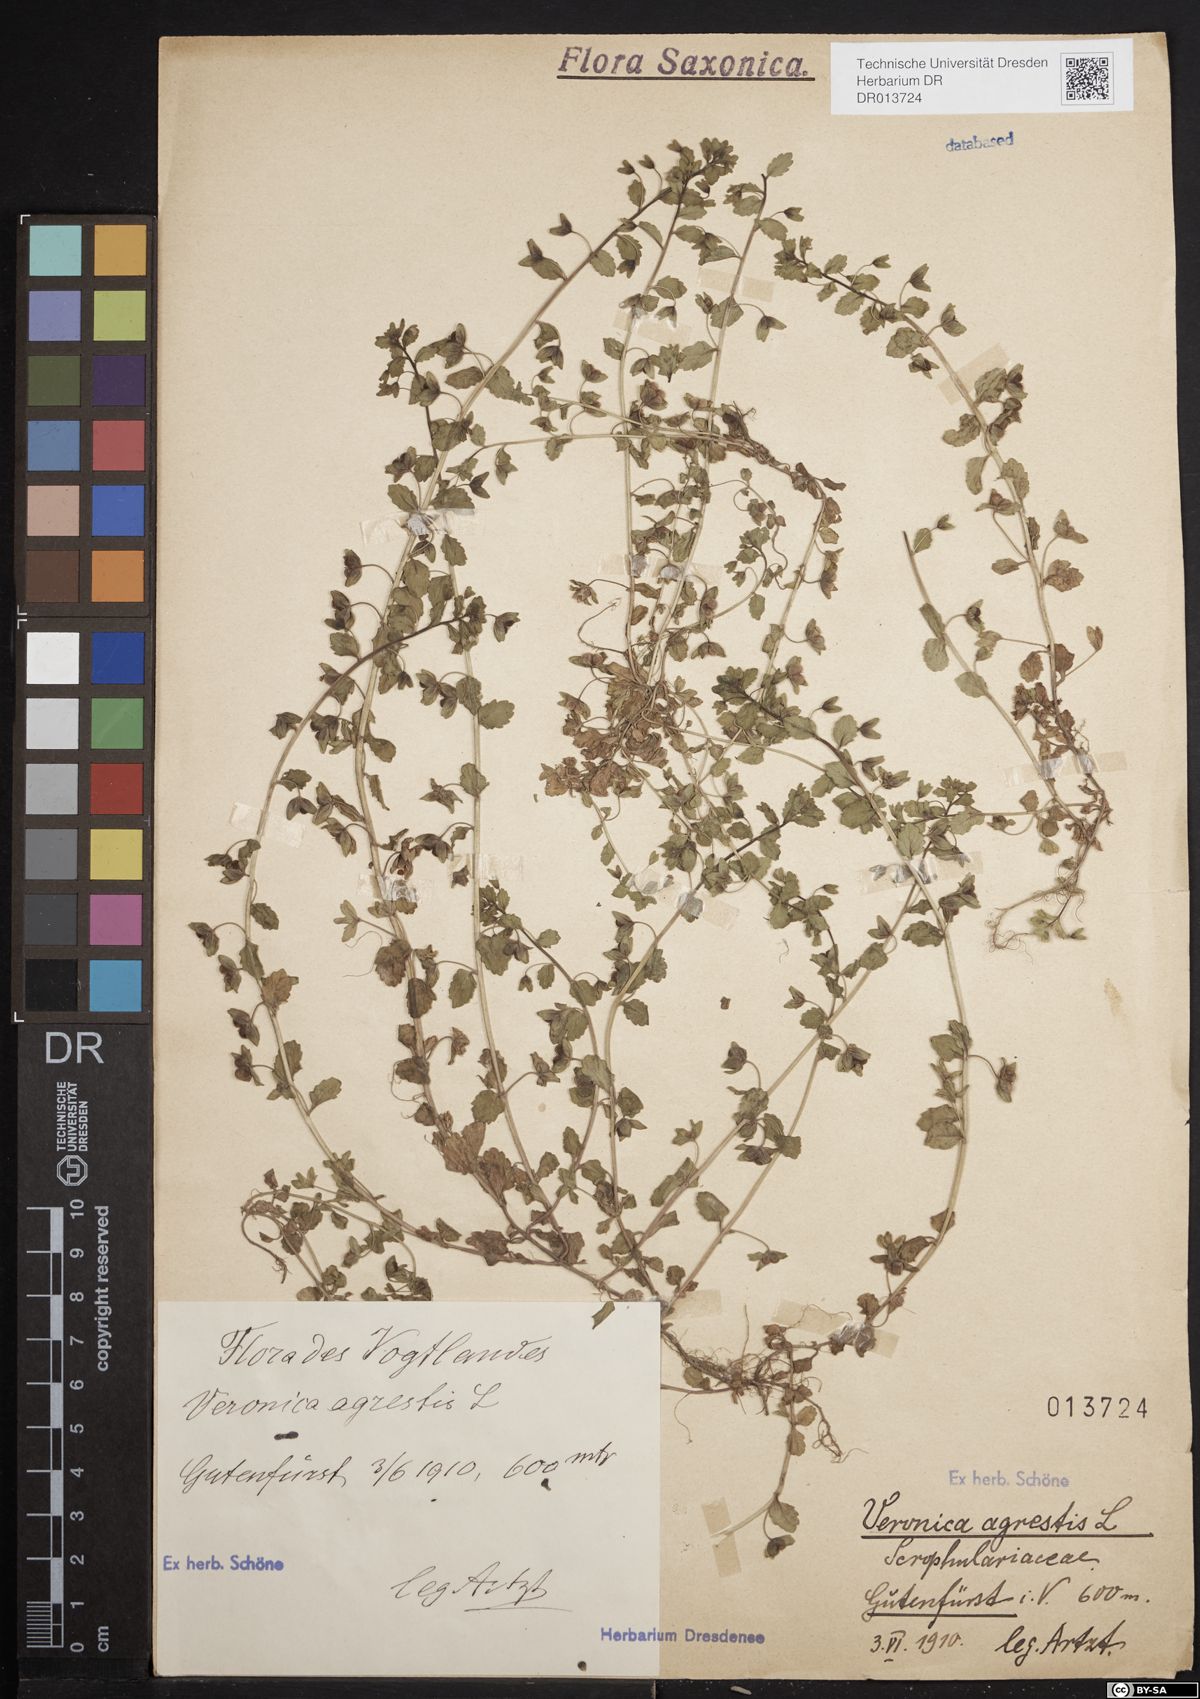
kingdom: Plantae
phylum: Tracheophyta
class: Magnoliopsida
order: Lamiales
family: Plantaginaceae
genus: Veronica
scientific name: Veronica agrestis
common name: Green field-speedwell
